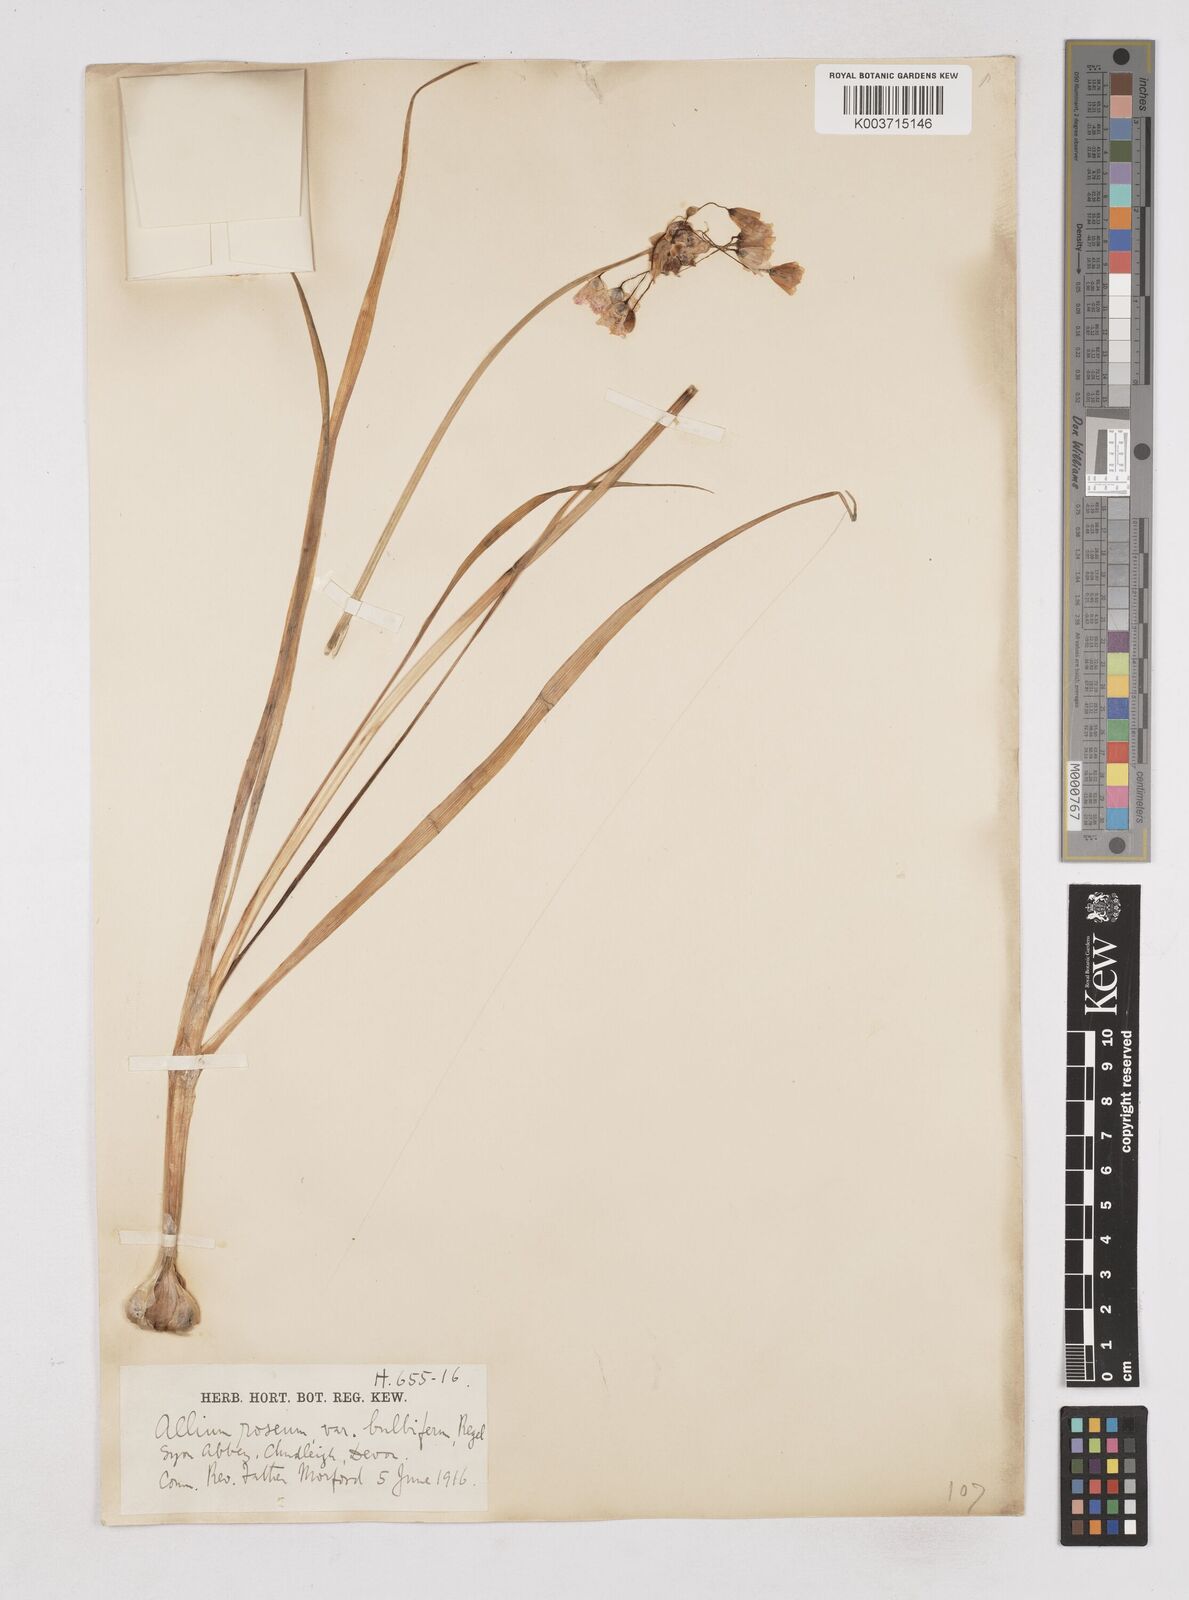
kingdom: Plantae
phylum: Tracheophyta
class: Liliopsida
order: Asparagales
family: Amaryllidaceae
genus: Allium
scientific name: Allium roseum
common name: Rosy garlic
